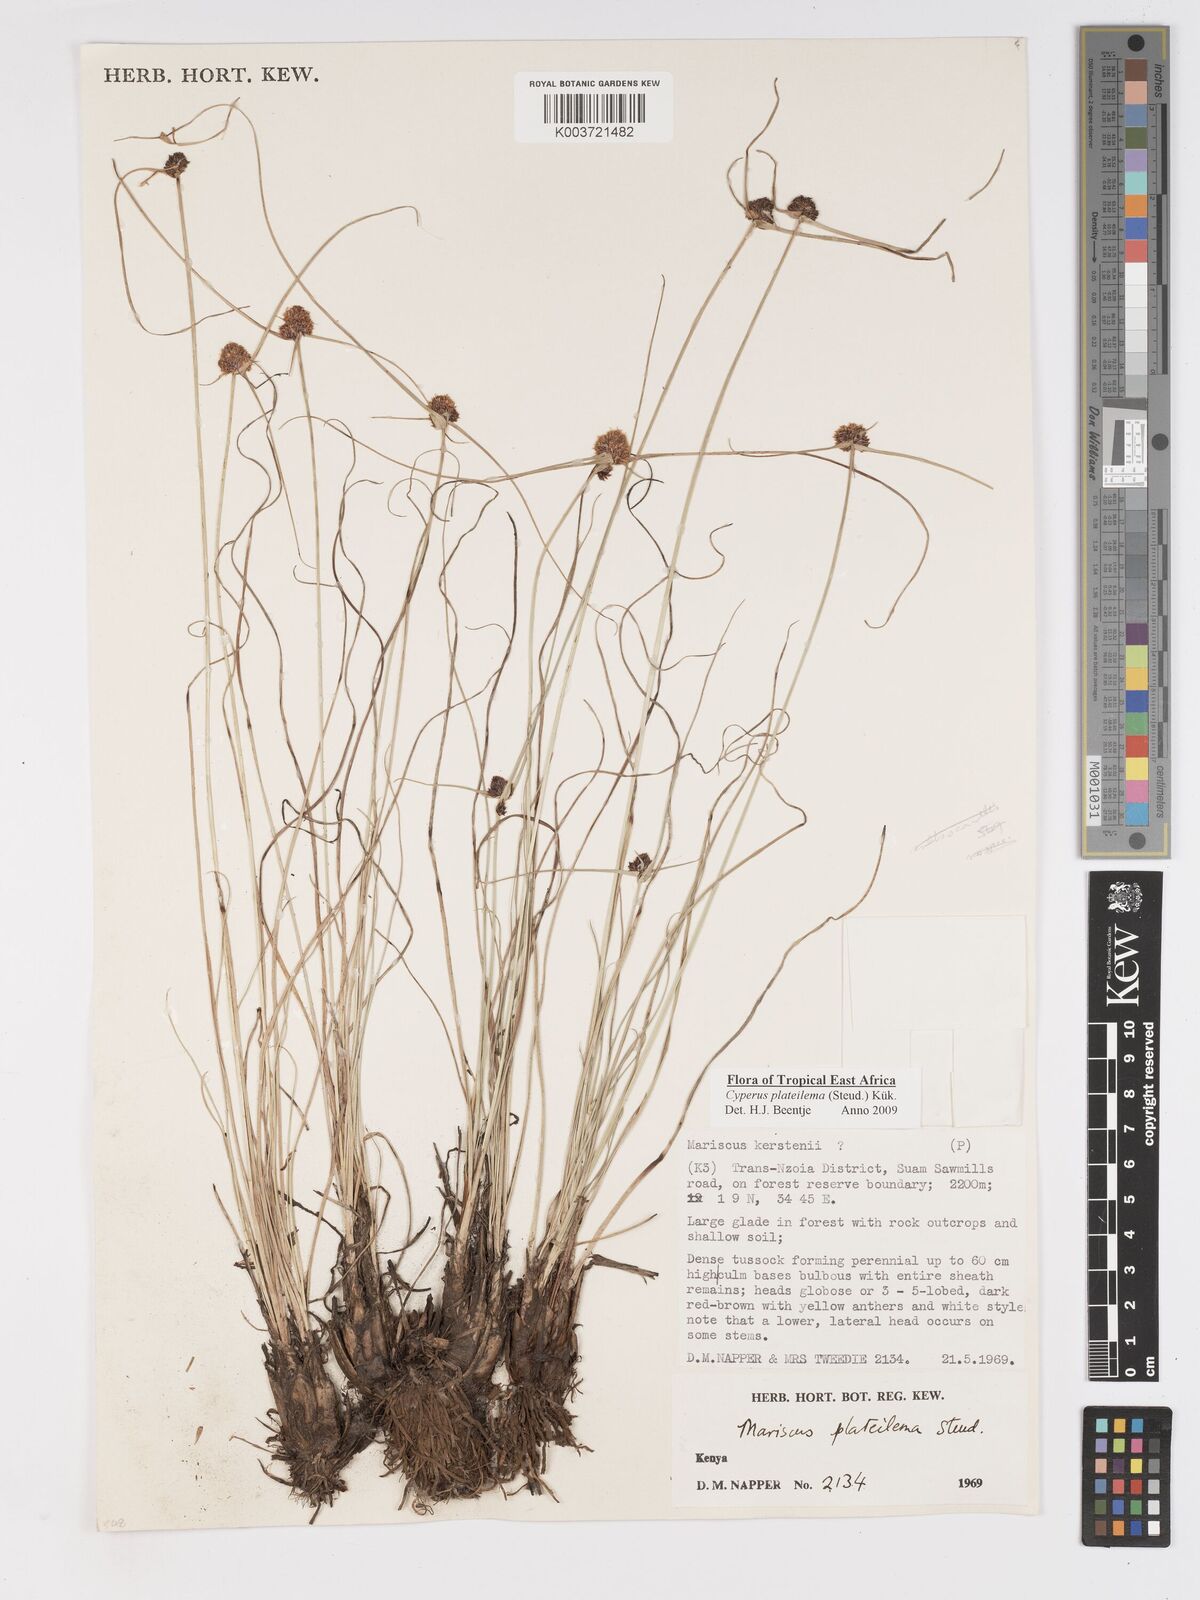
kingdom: Plantae
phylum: Tracheophyta
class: Liliopsida
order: Poales
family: Cyperaceae
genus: Cyperus
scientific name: Cyperus plateilema
